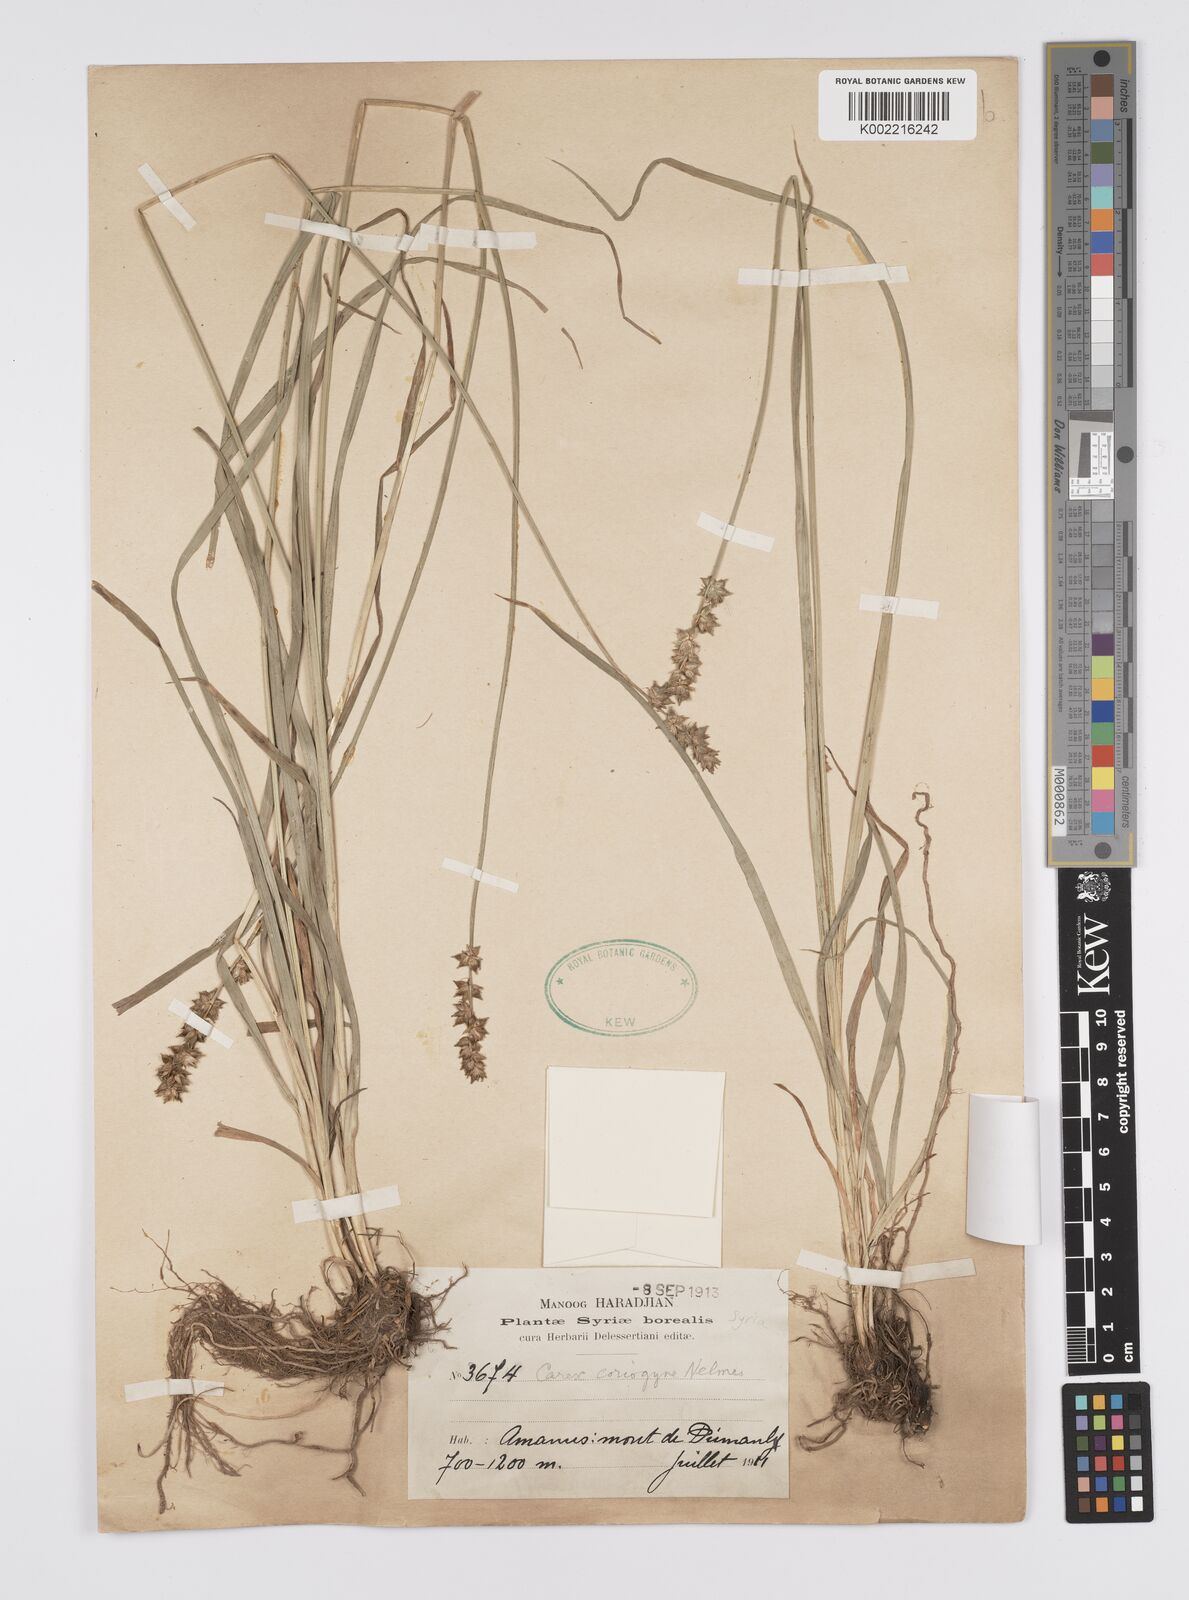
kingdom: Plantae
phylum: Tracheophyta
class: Liliopsida
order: Poales
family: Cyperaceae
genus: Carex
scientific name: Carex muricata
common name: Rough sedge
